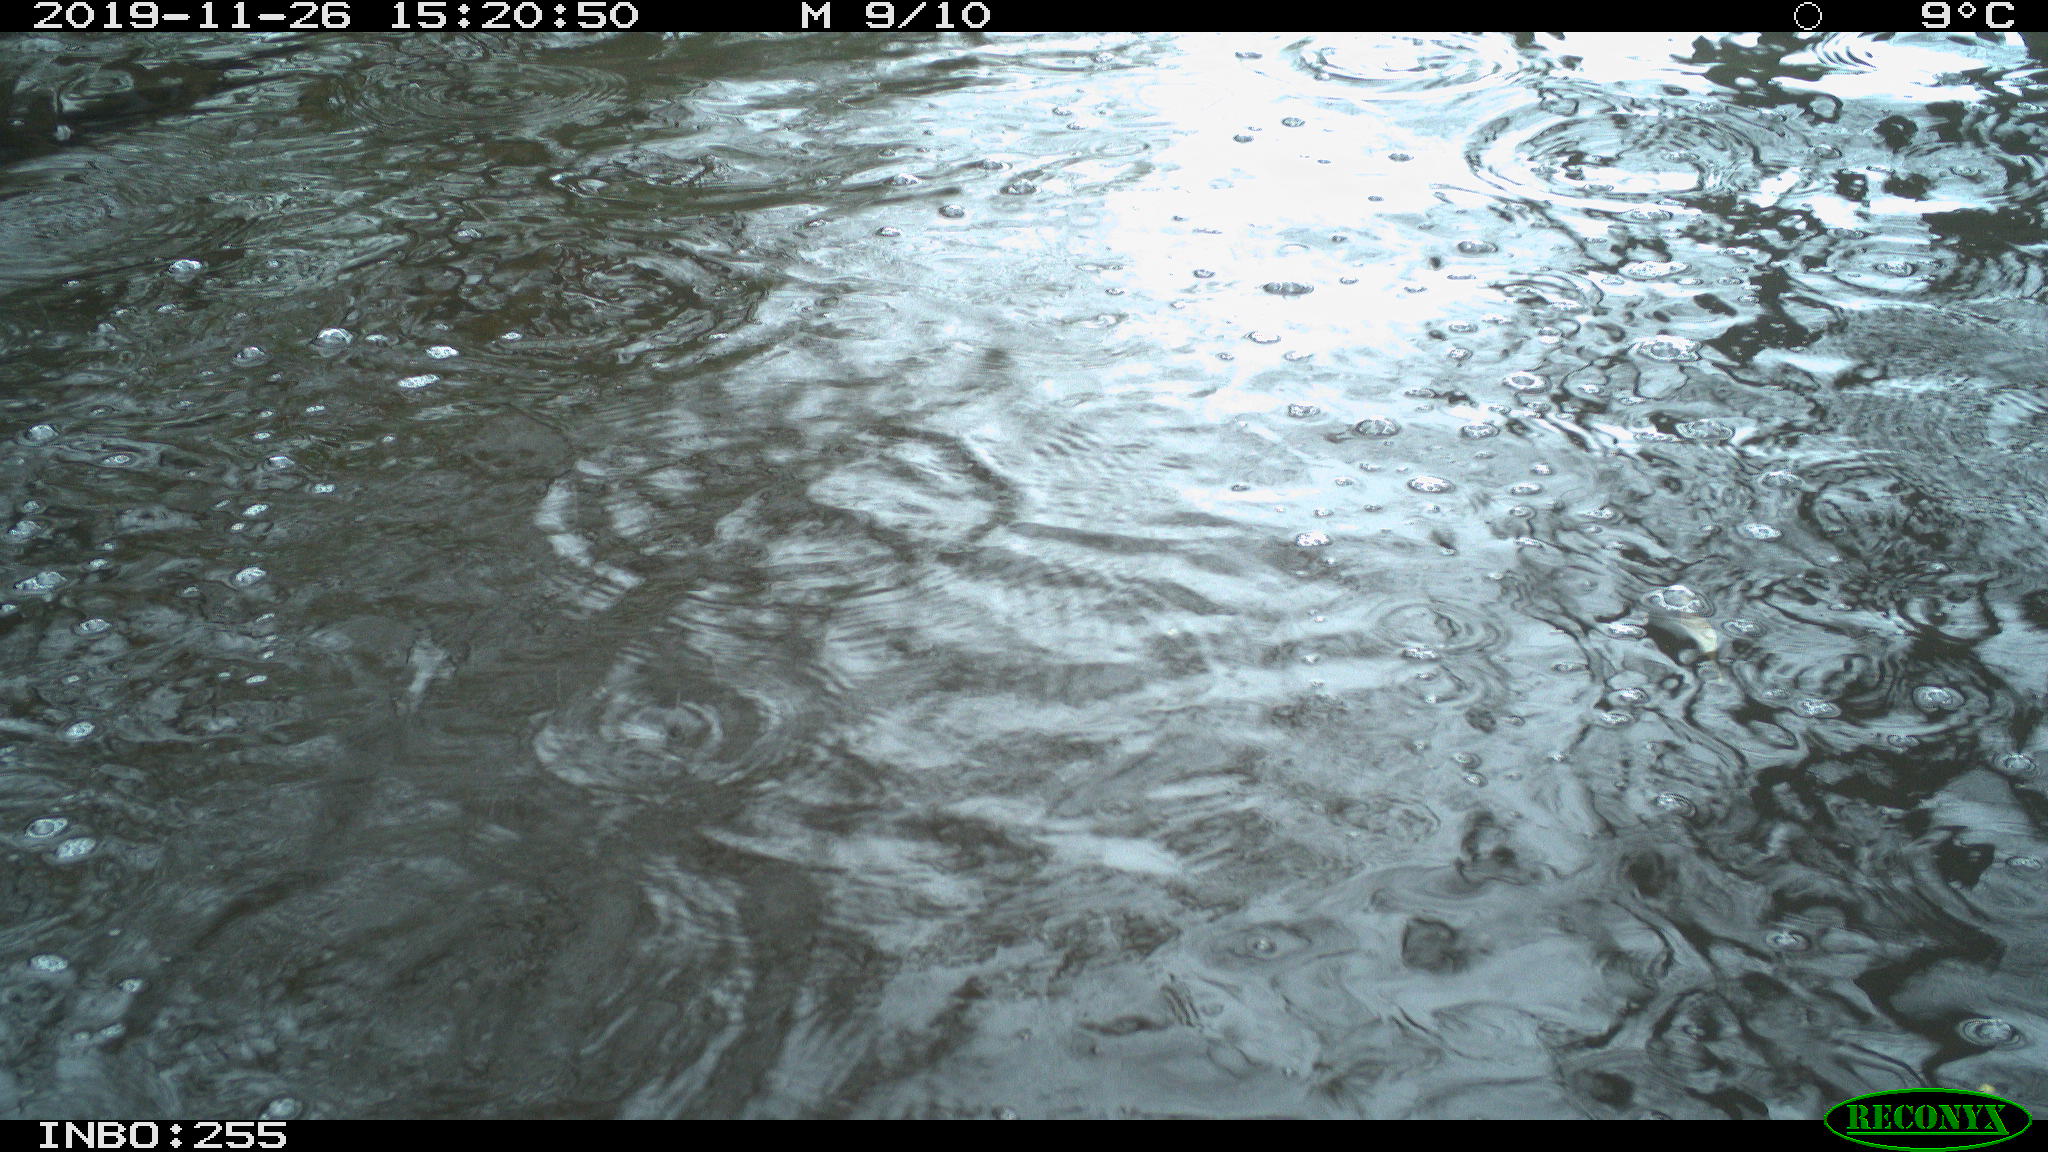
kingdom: Animalia
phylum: Chordata
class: Aves
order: Anseriformes
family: Anatidae
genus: Anas
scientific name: Anas platyrhynchos
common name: Mallard
